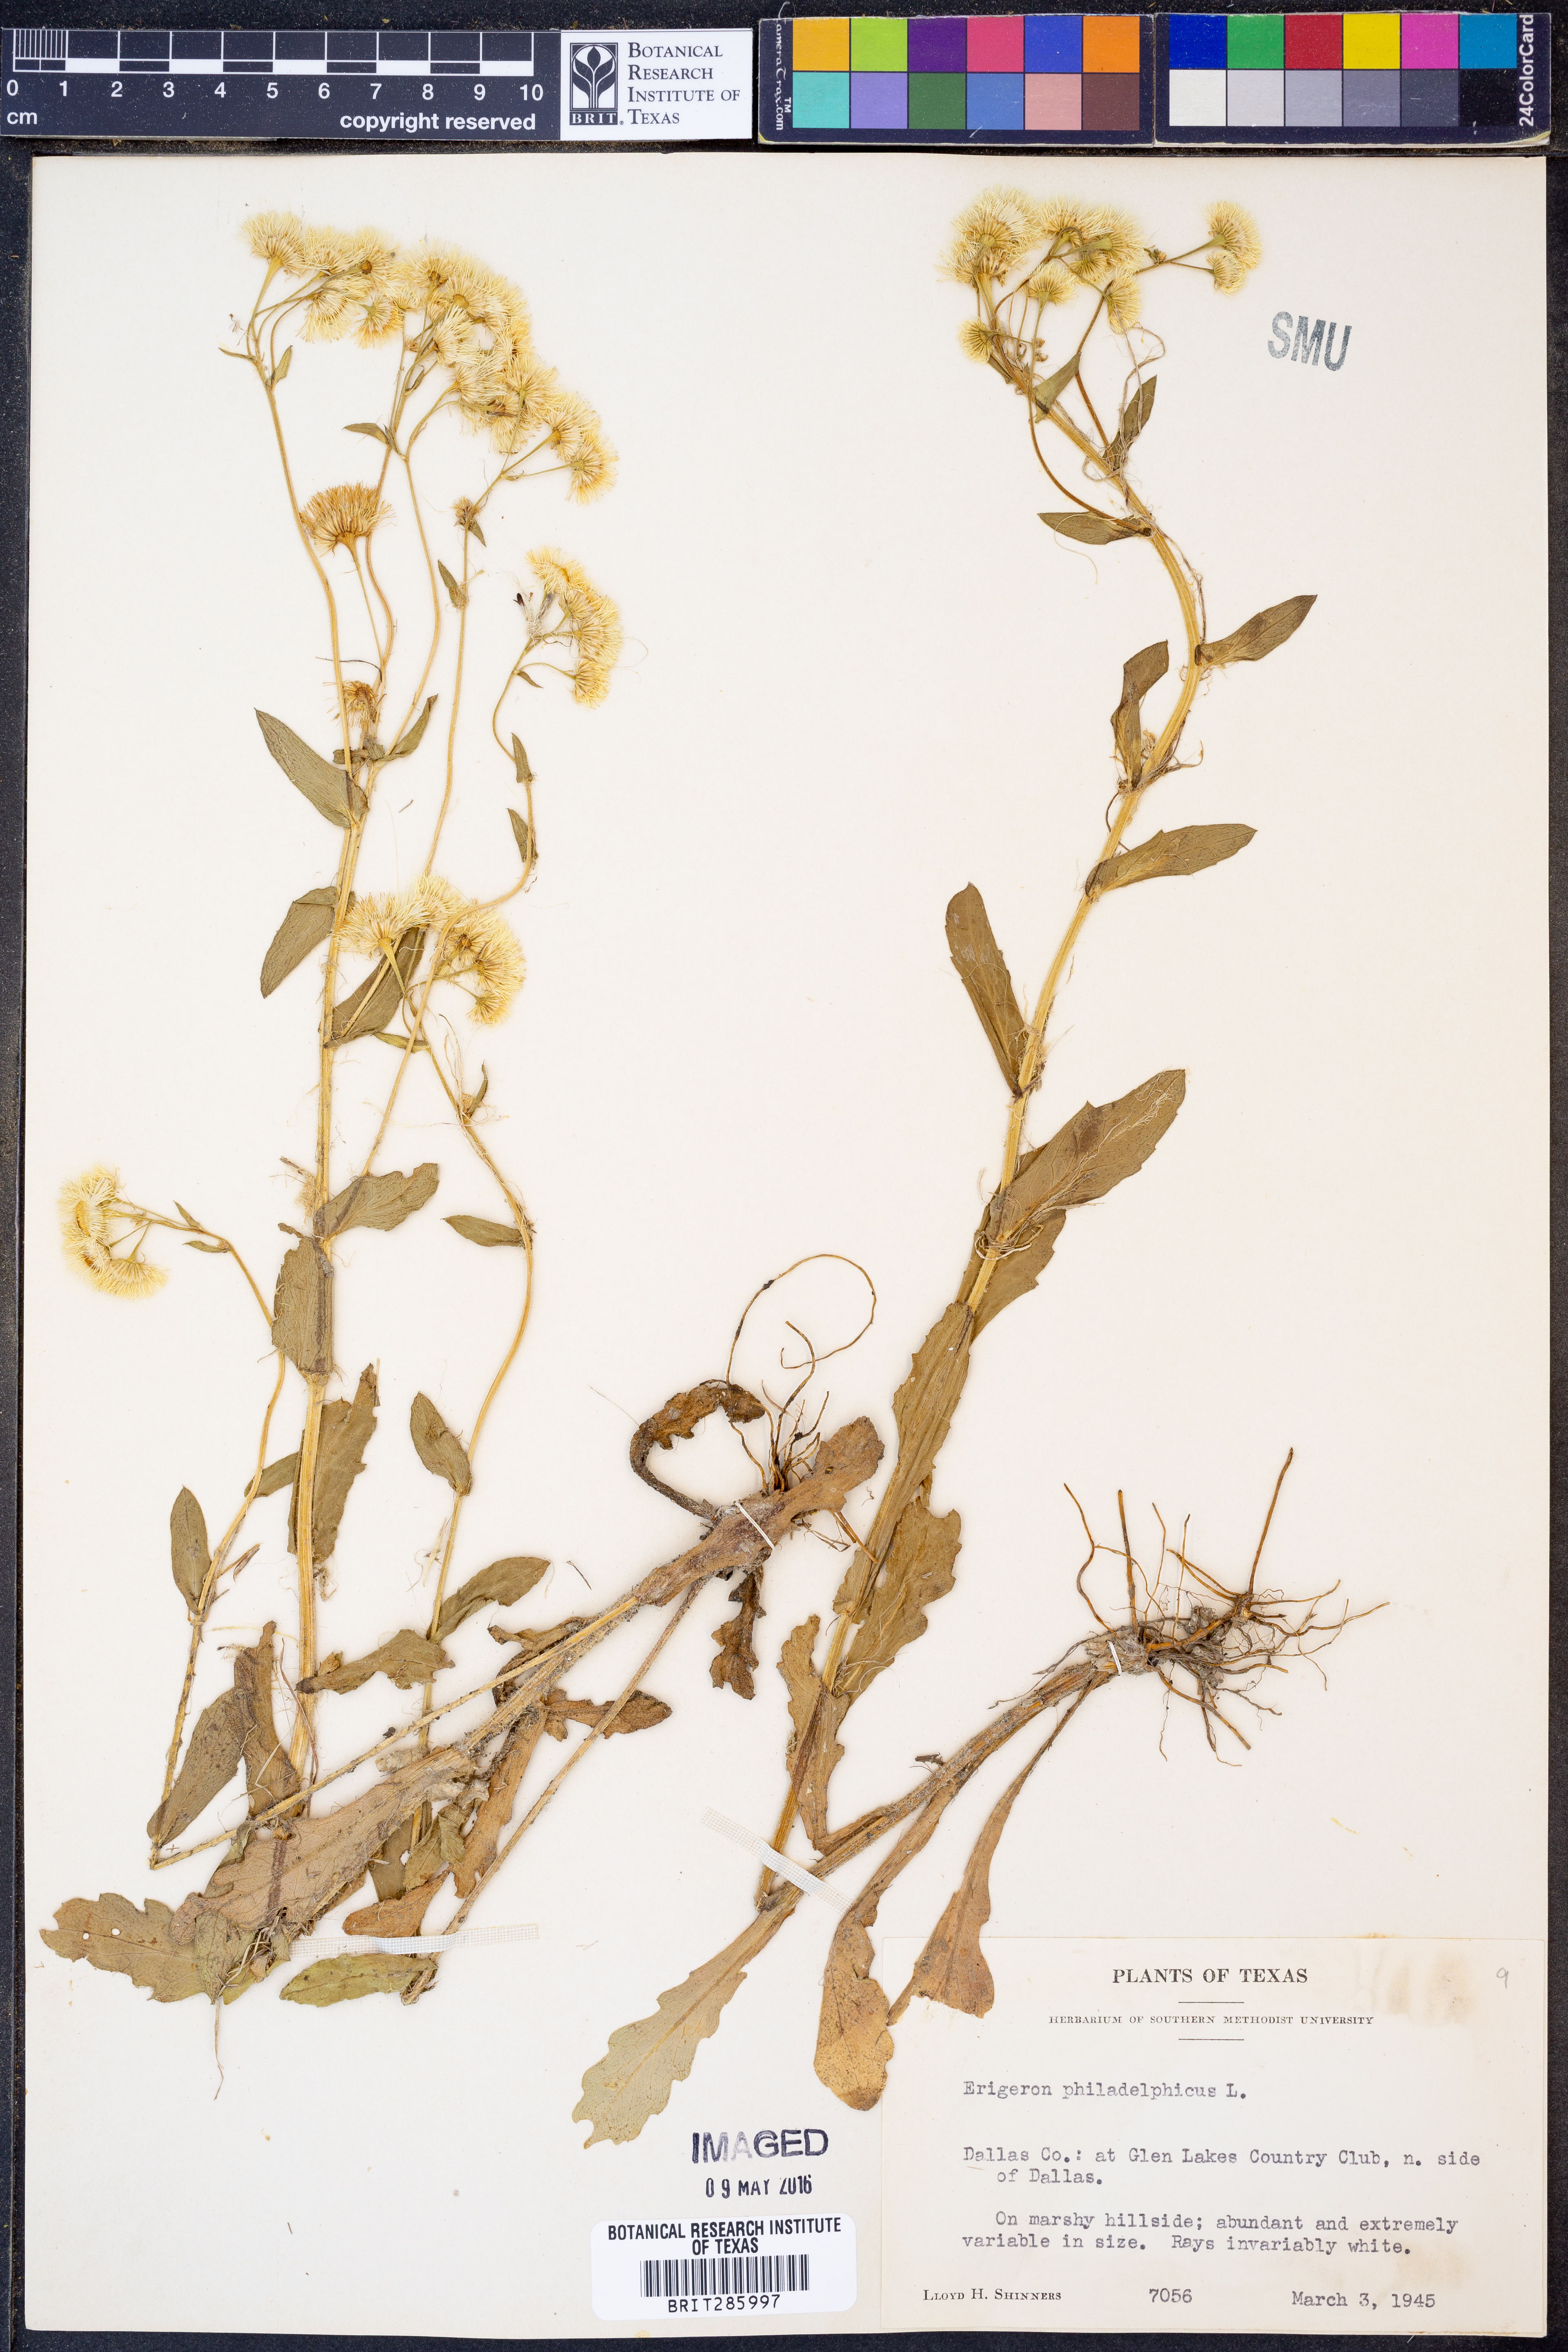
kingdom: Plantae
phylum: Tracheophyta
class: Magnoliopsida
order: Asterales
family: Asteraceae
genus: Erigeron
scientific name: Erigeron philadelphicus
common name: Robin's-plantain
